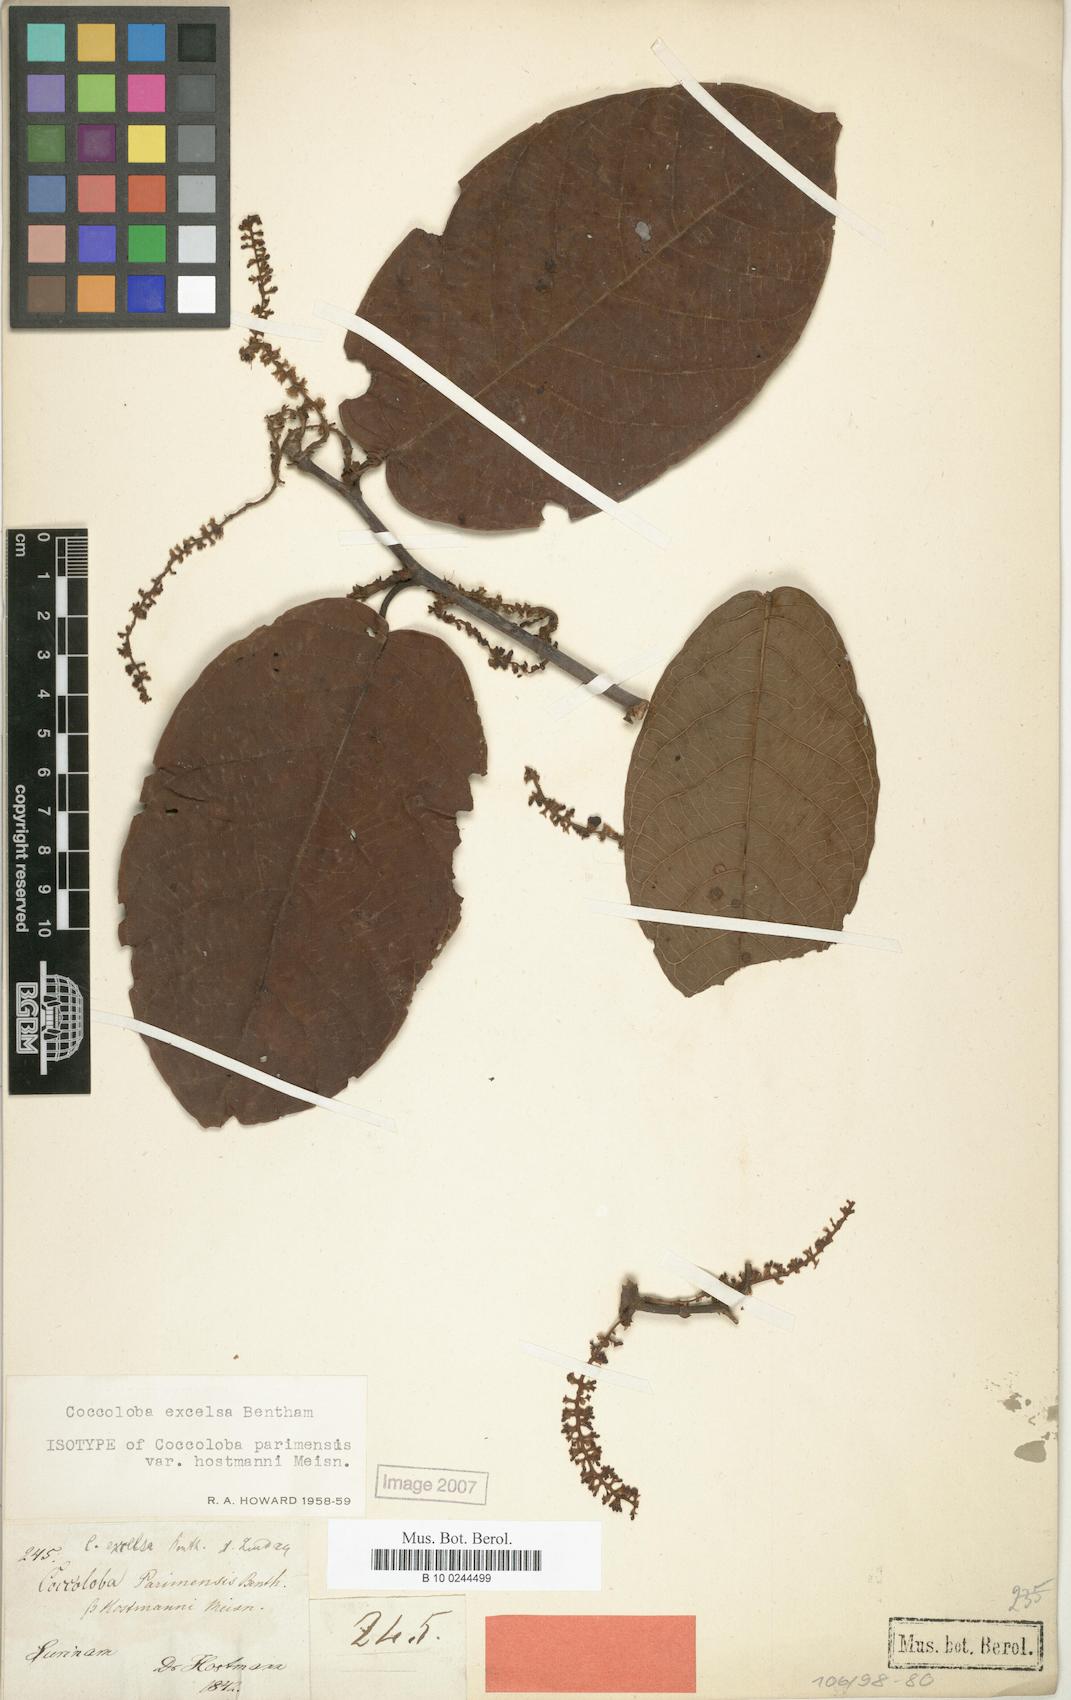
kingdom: Plantae
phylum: Tracheophyta
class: Magnoliopsida
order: Caryophyllales
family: Polygonaceae
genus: Coccoloba
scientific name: Coccoloba excelsa
